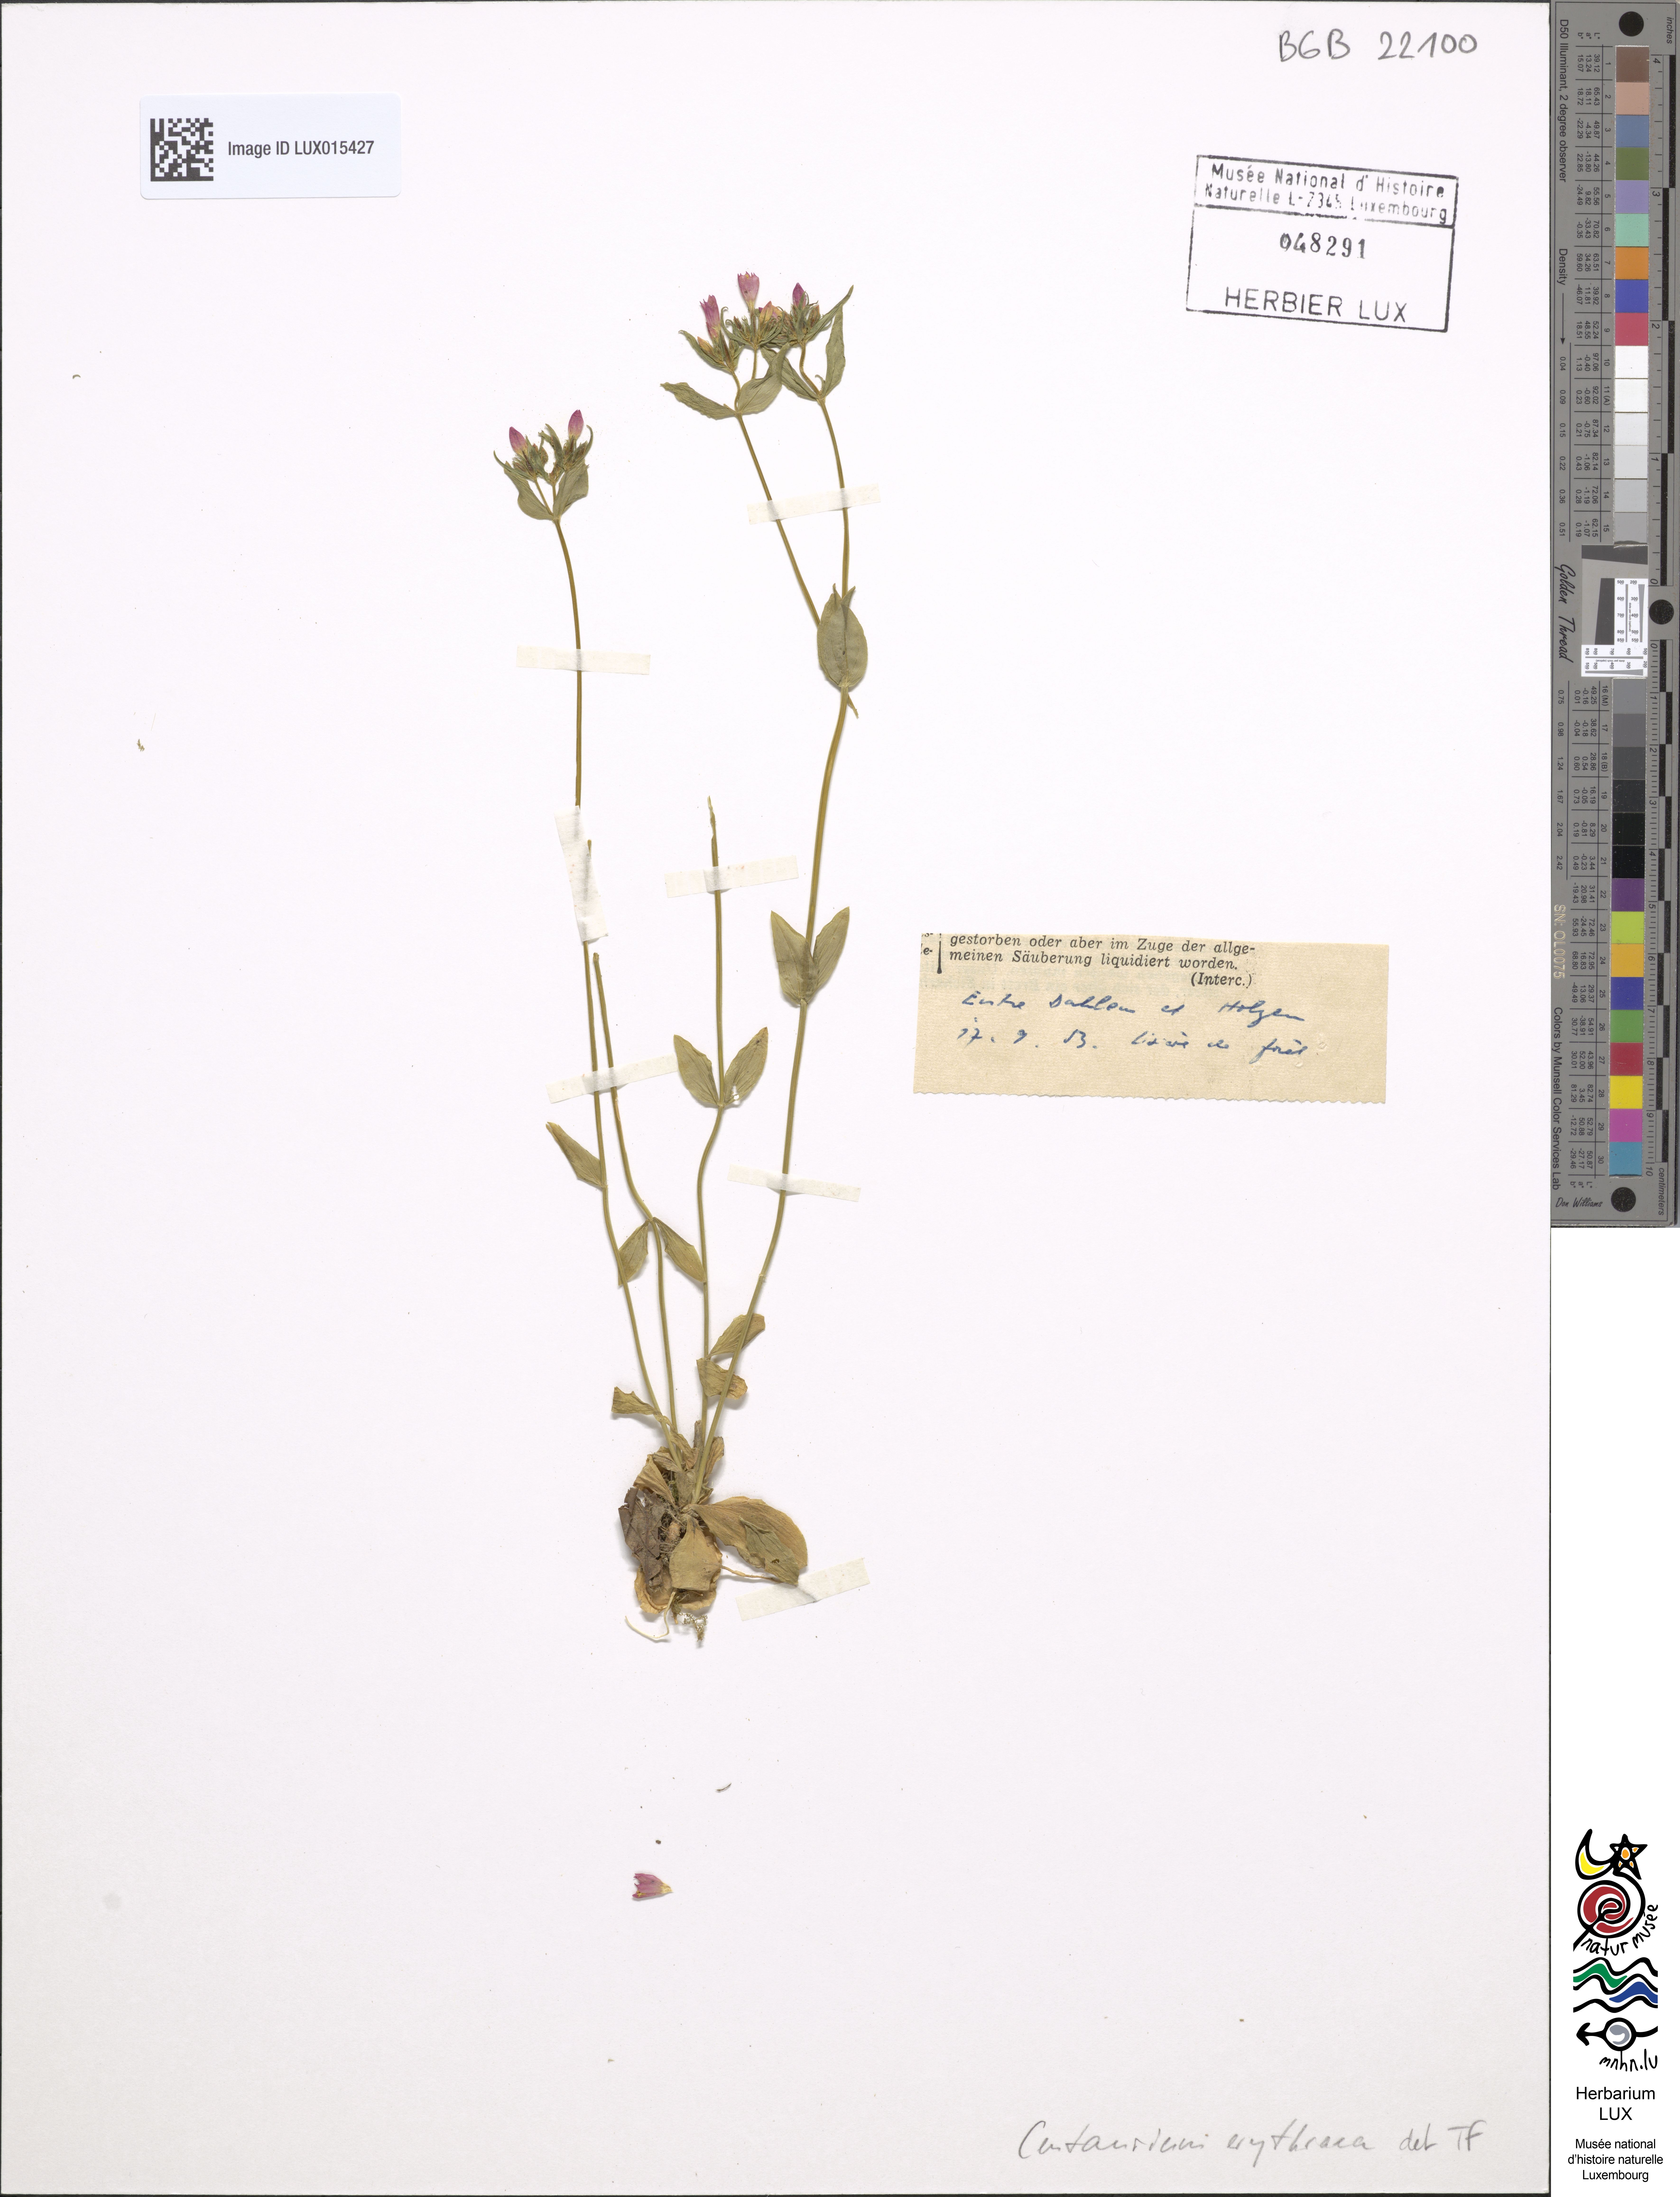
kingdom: Plantae
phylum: Tracheophyta
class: Magnoliopsida
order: Gentianales
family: Gentianaceae
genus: Centaurium
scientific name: Centaurium erythraea
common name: Common centaury
